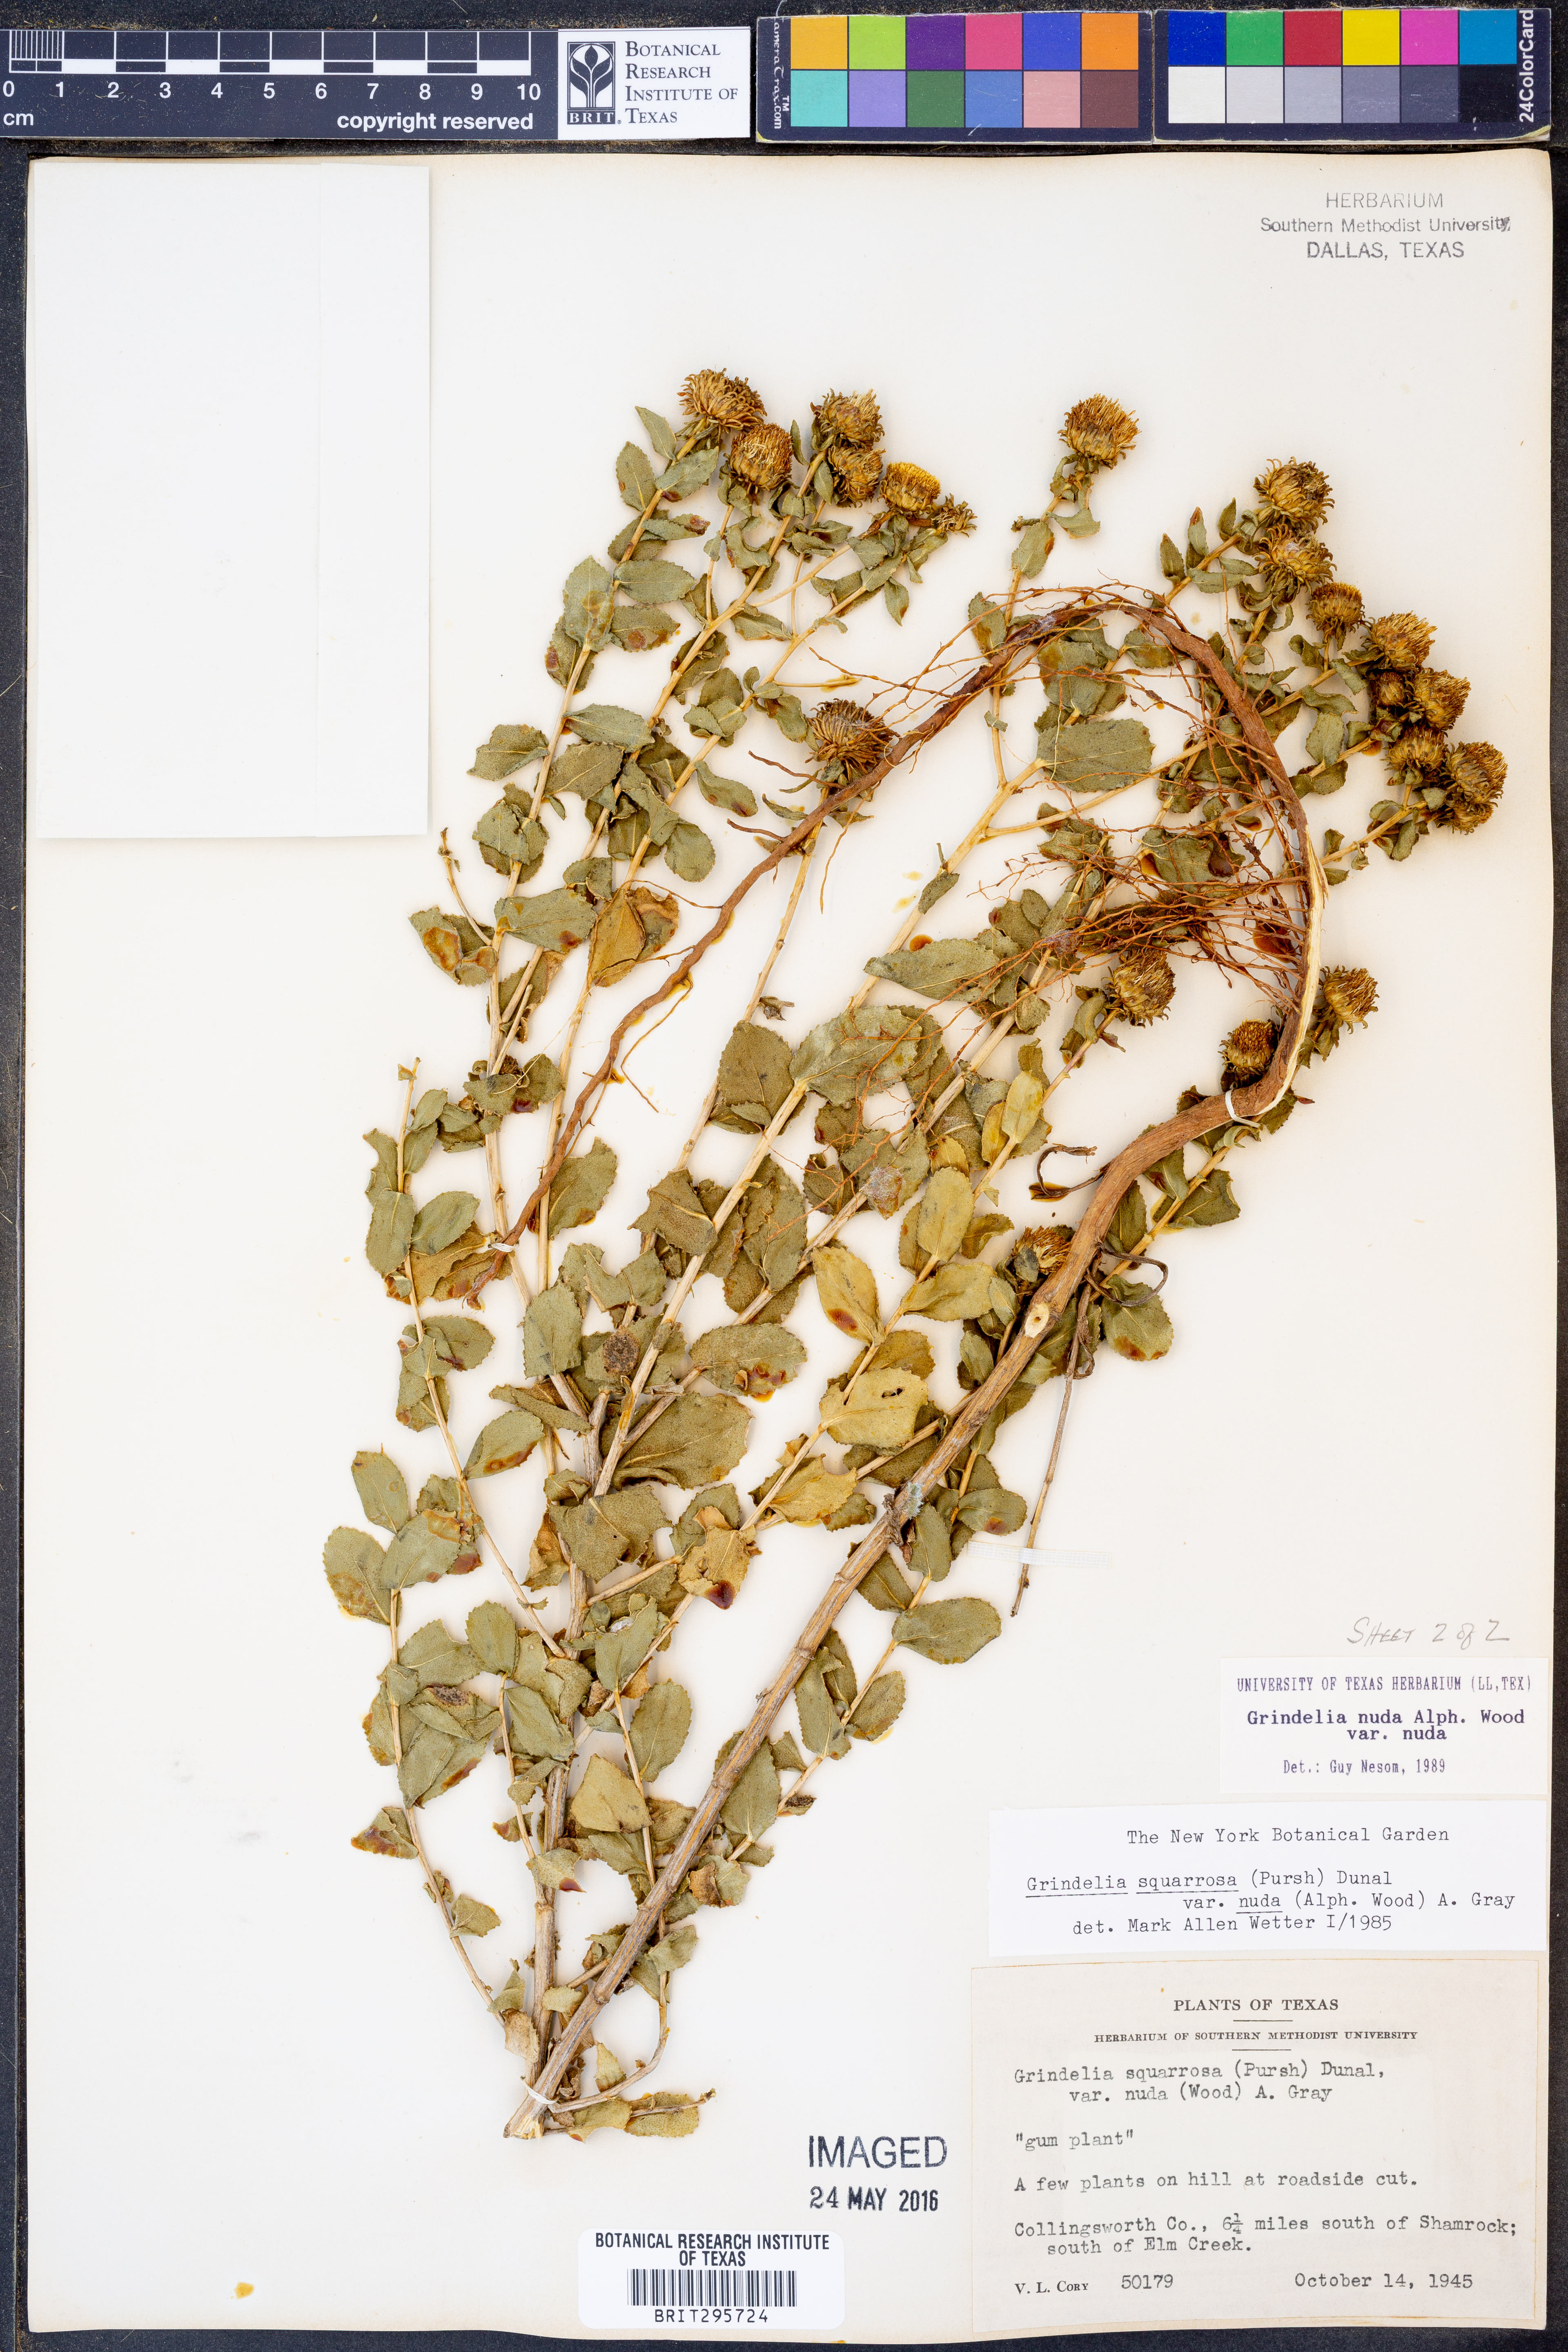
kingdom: Plantae
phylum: Tracheophyta
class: Magnoliopsida
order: Asterales
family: Asteraceae
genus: Grindelia
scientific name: Grindelia nuda
